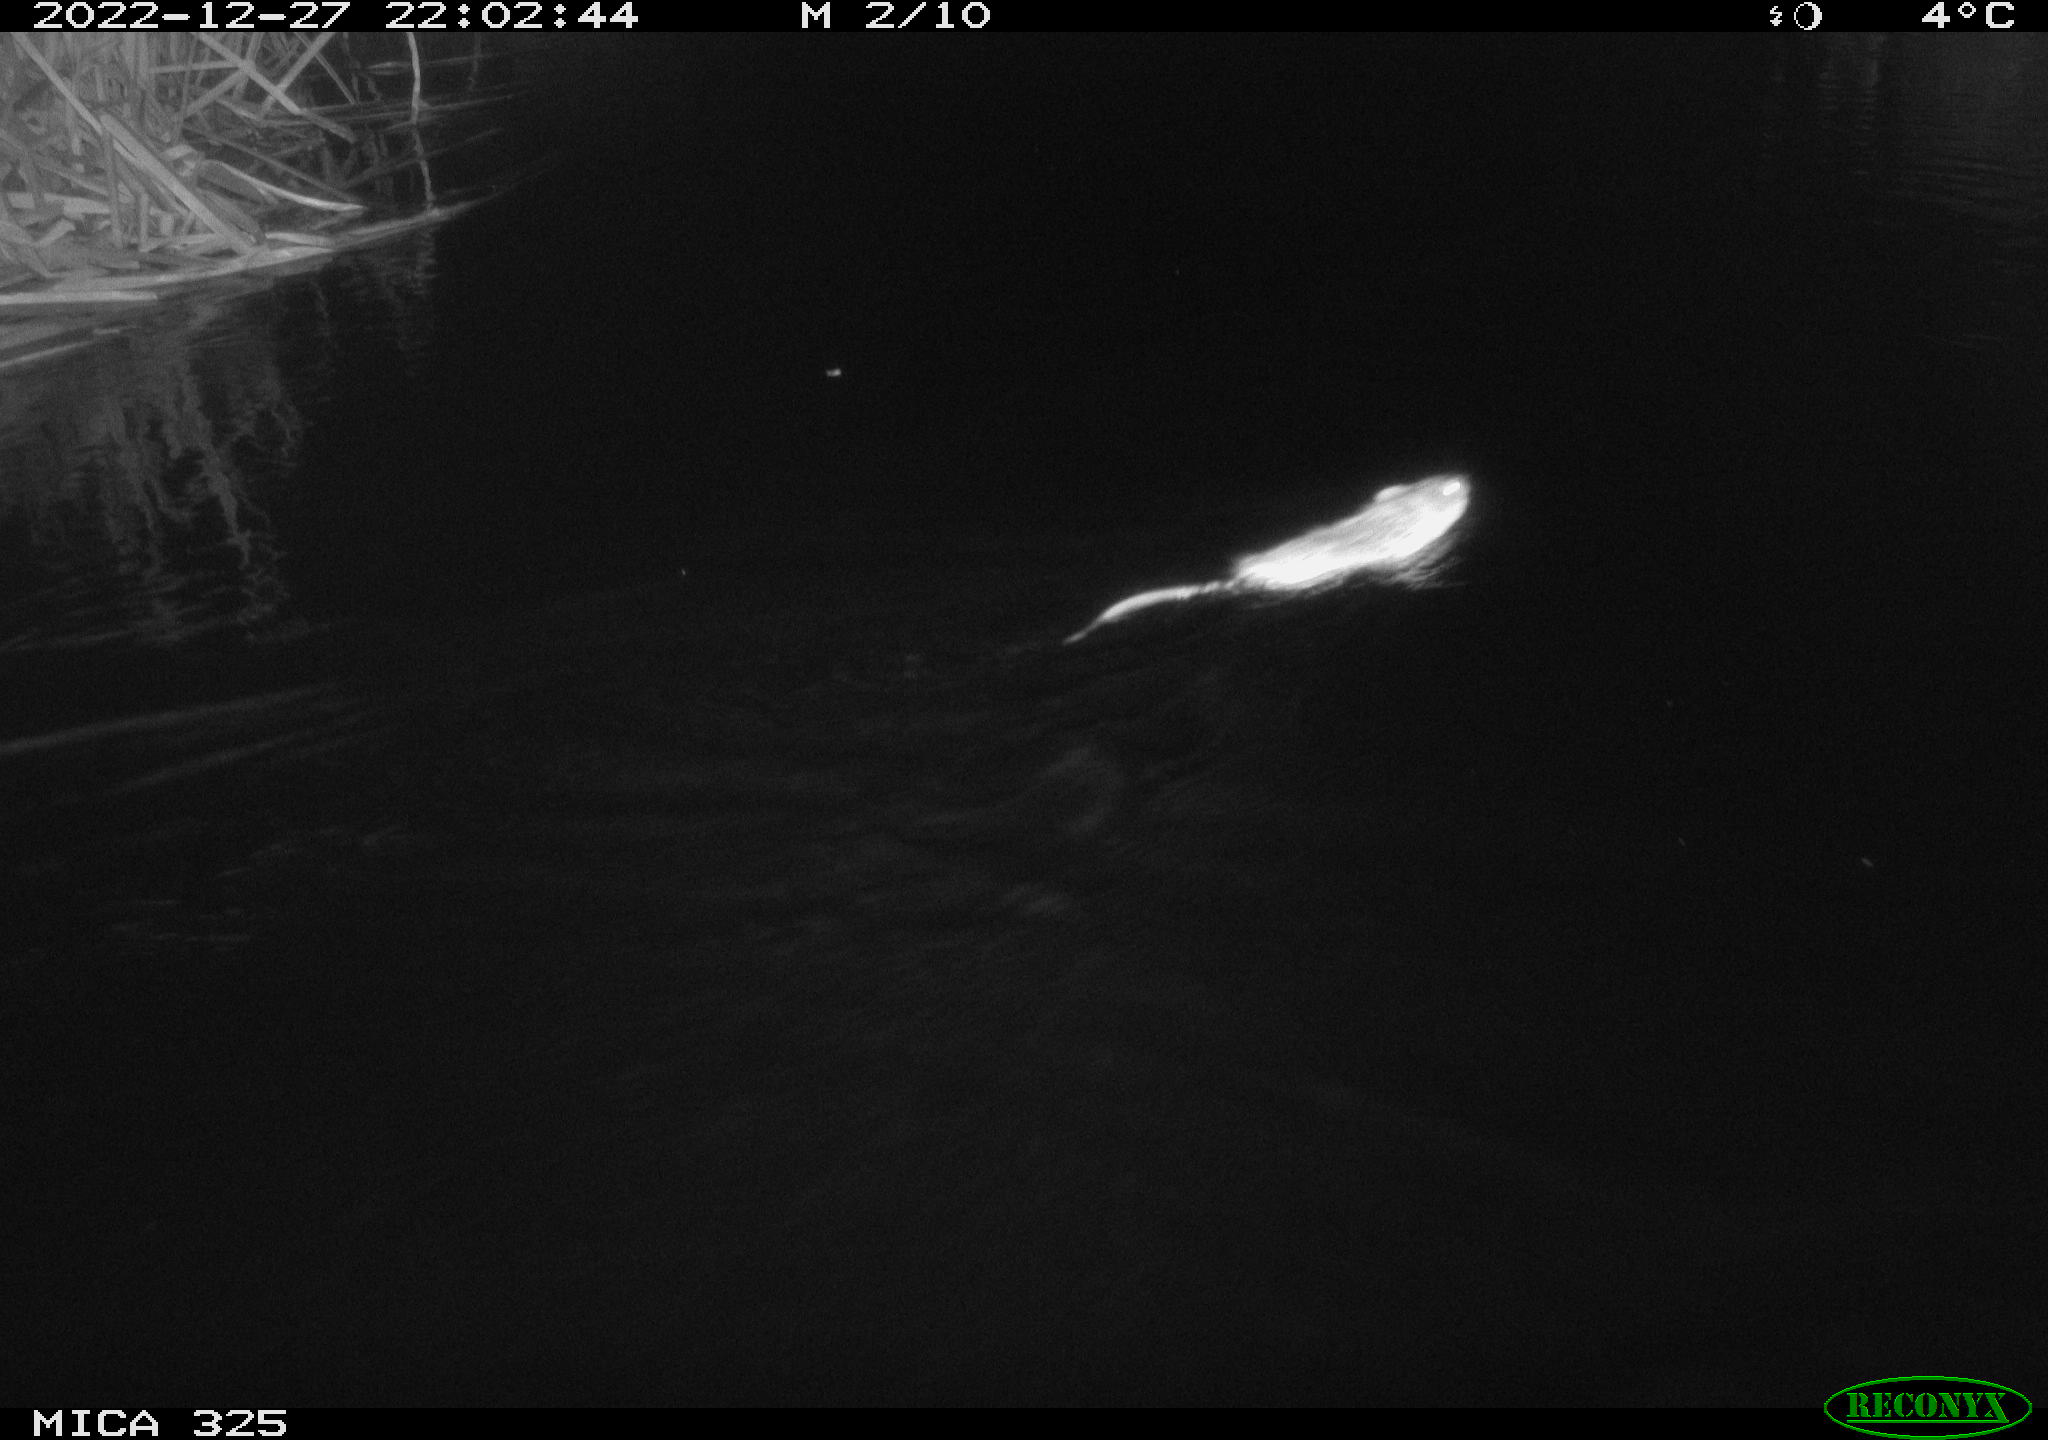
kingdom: Animalia
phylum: Chordata
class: Mammalia
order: Rodentia
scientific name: Rodentia
